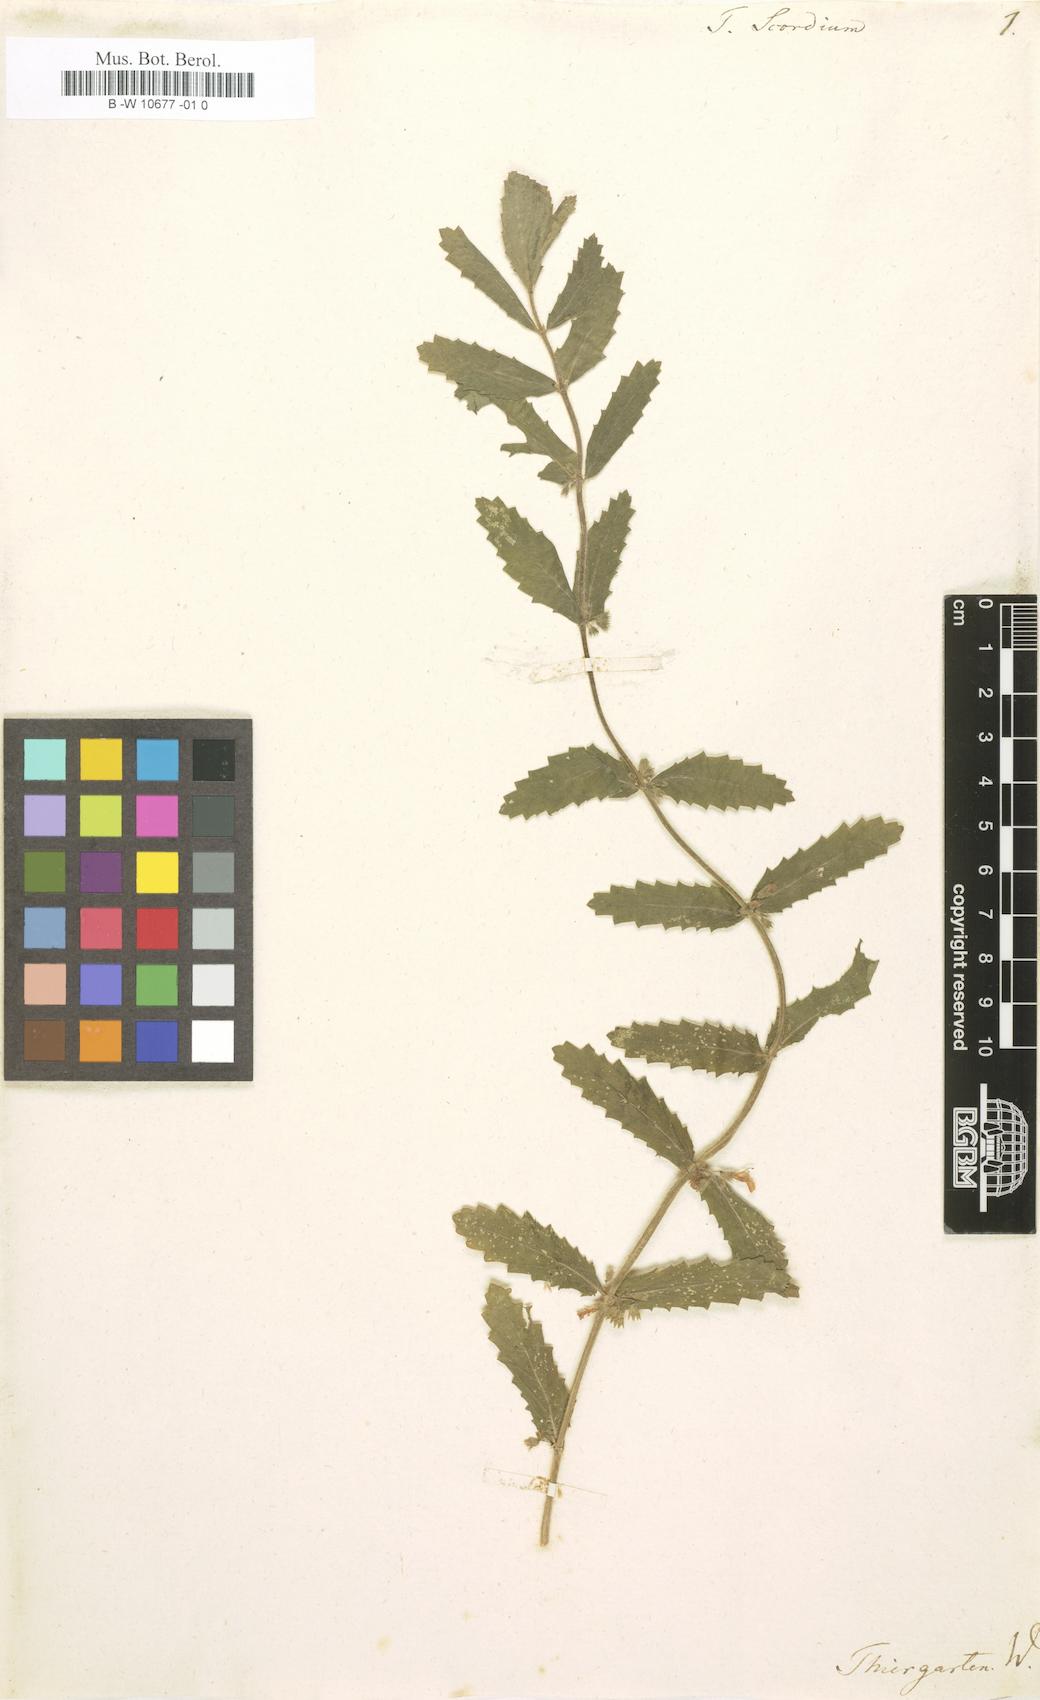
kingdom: Plantae
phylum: Tracheophyta
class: Magnoliopsida
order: Lamiales
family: Lamiaceae
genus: Teucrium
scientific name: Teucrium scordium
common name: Water germander
